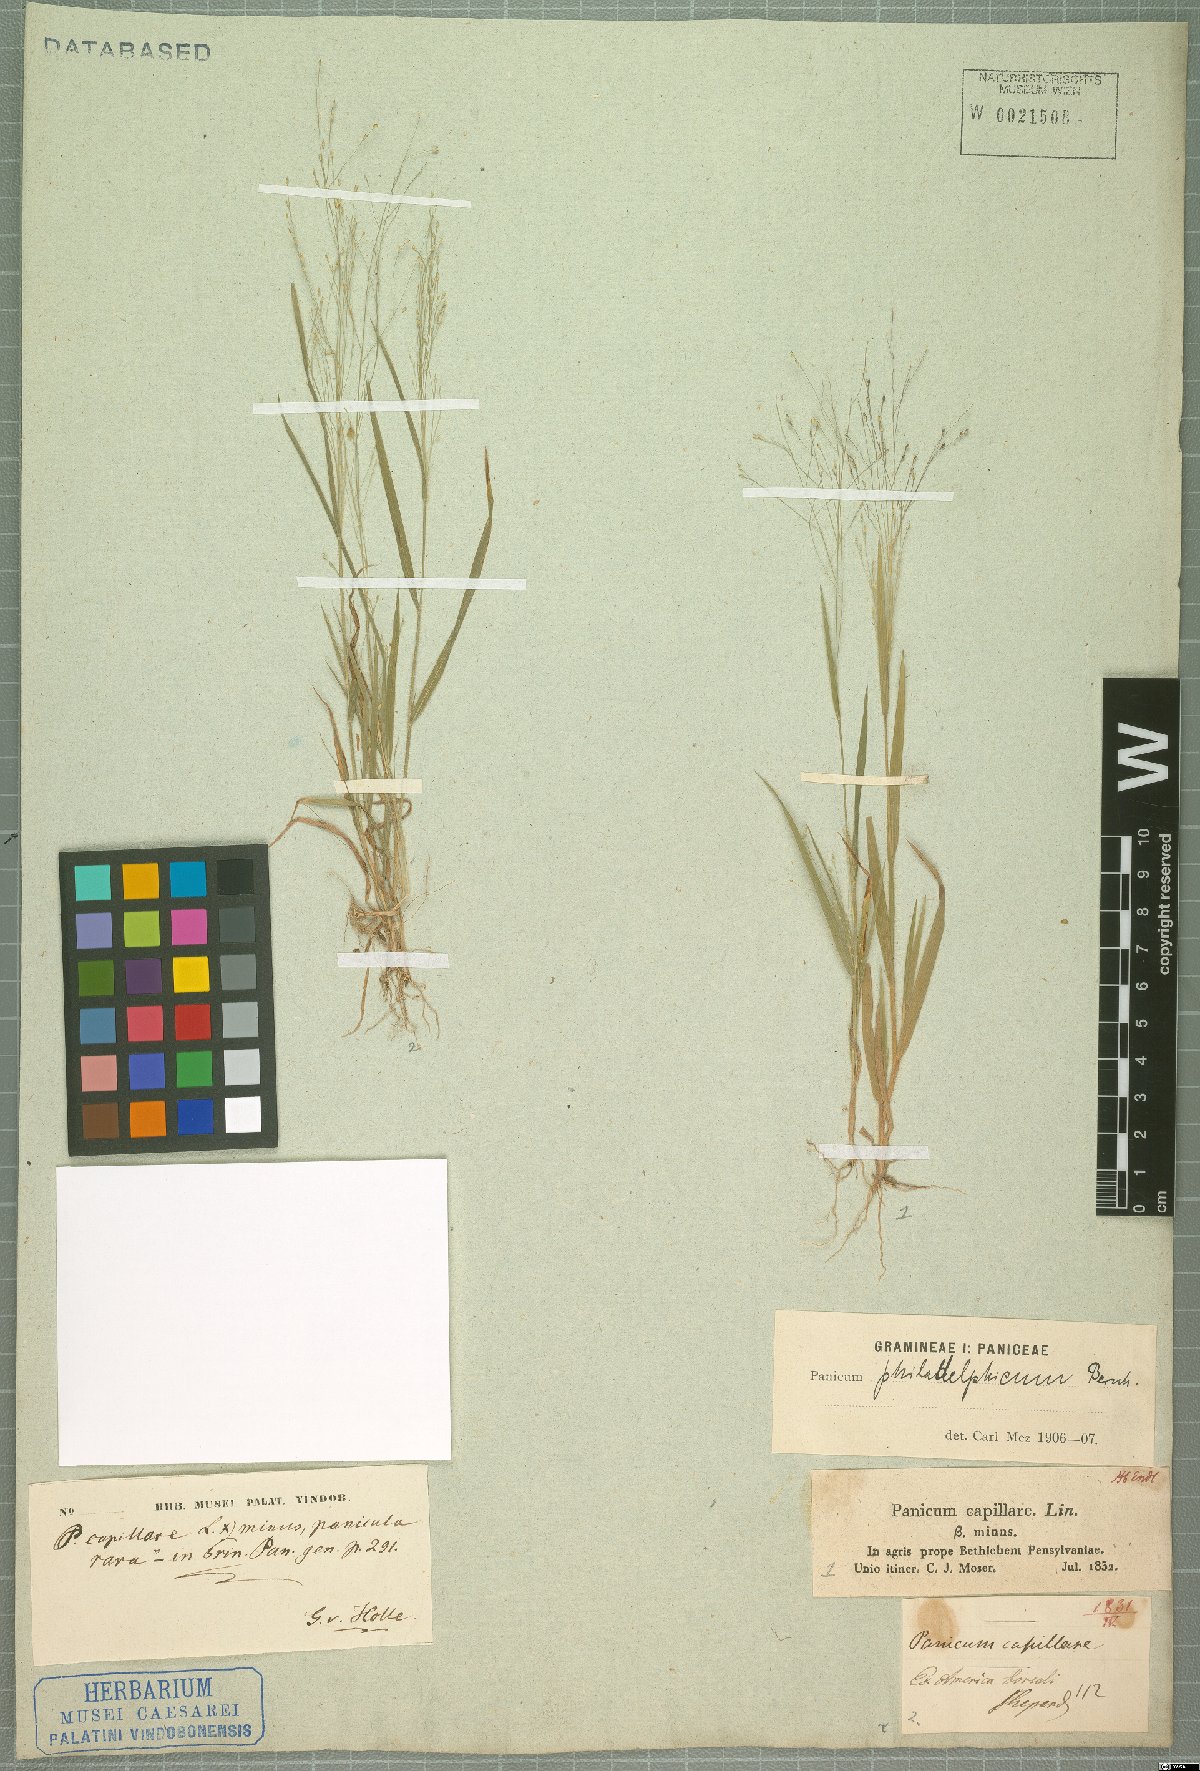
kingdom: Plantae
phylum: Tracheophyta
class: Liliopsida
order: Poales
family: Poaceae
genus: Panicum
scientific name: Panicum philadelphicum
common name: Philadelphia witchgrass
